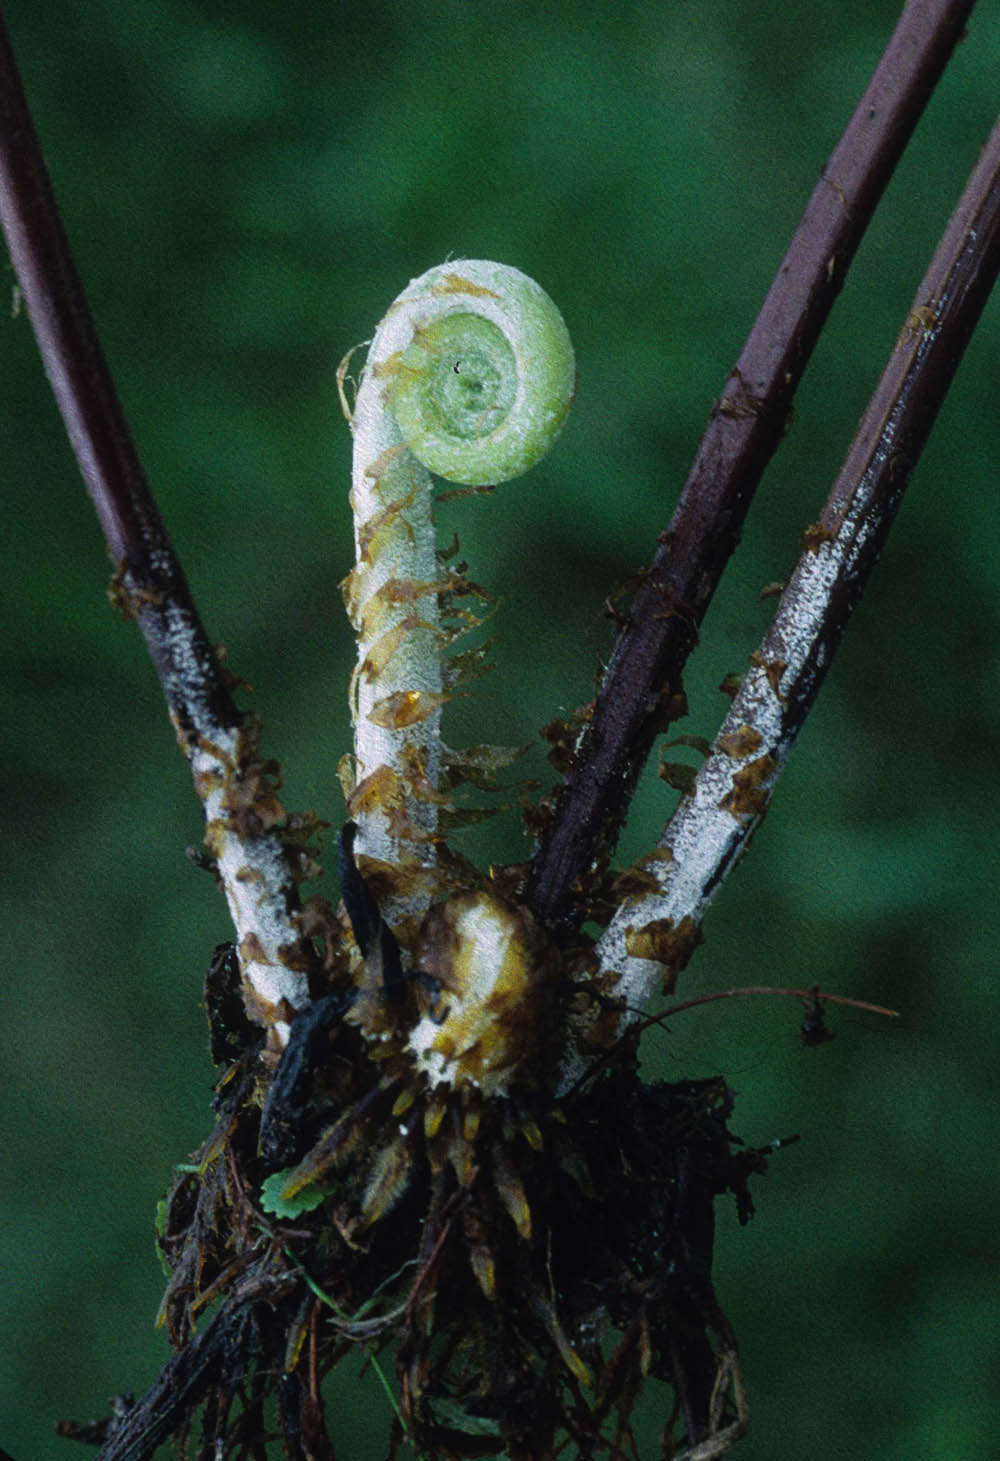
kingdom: Plantae
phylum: Tracheophyta
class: Polypodiopsida
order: Polypodiales
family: Pteridaceae
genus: Pityrogramma
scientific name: Pityrogramma pearcei
